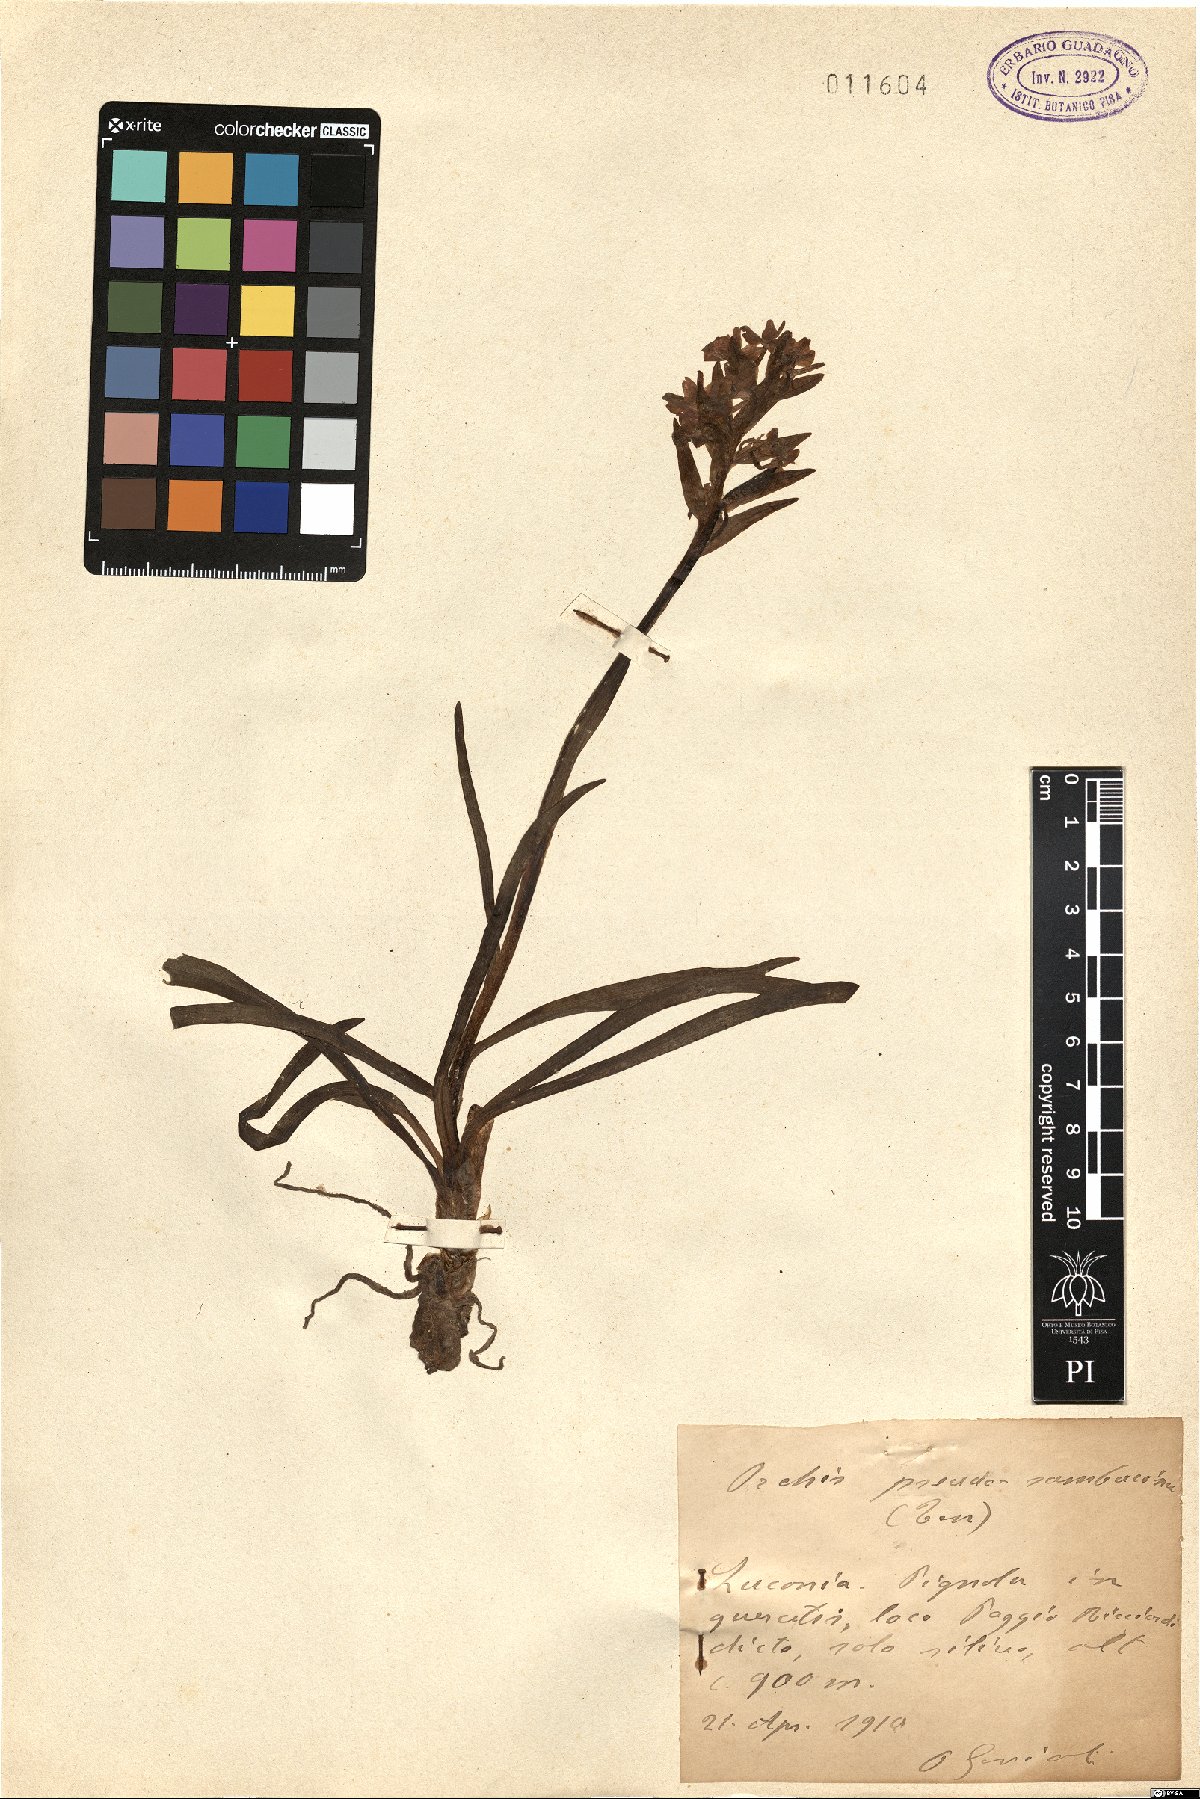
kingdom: Plantae
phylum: Tracheophyta
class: Liliopsida
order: Asparagales
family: Orchidaceae
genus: Dactylorhiza
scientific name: Dactylorhiza romana
